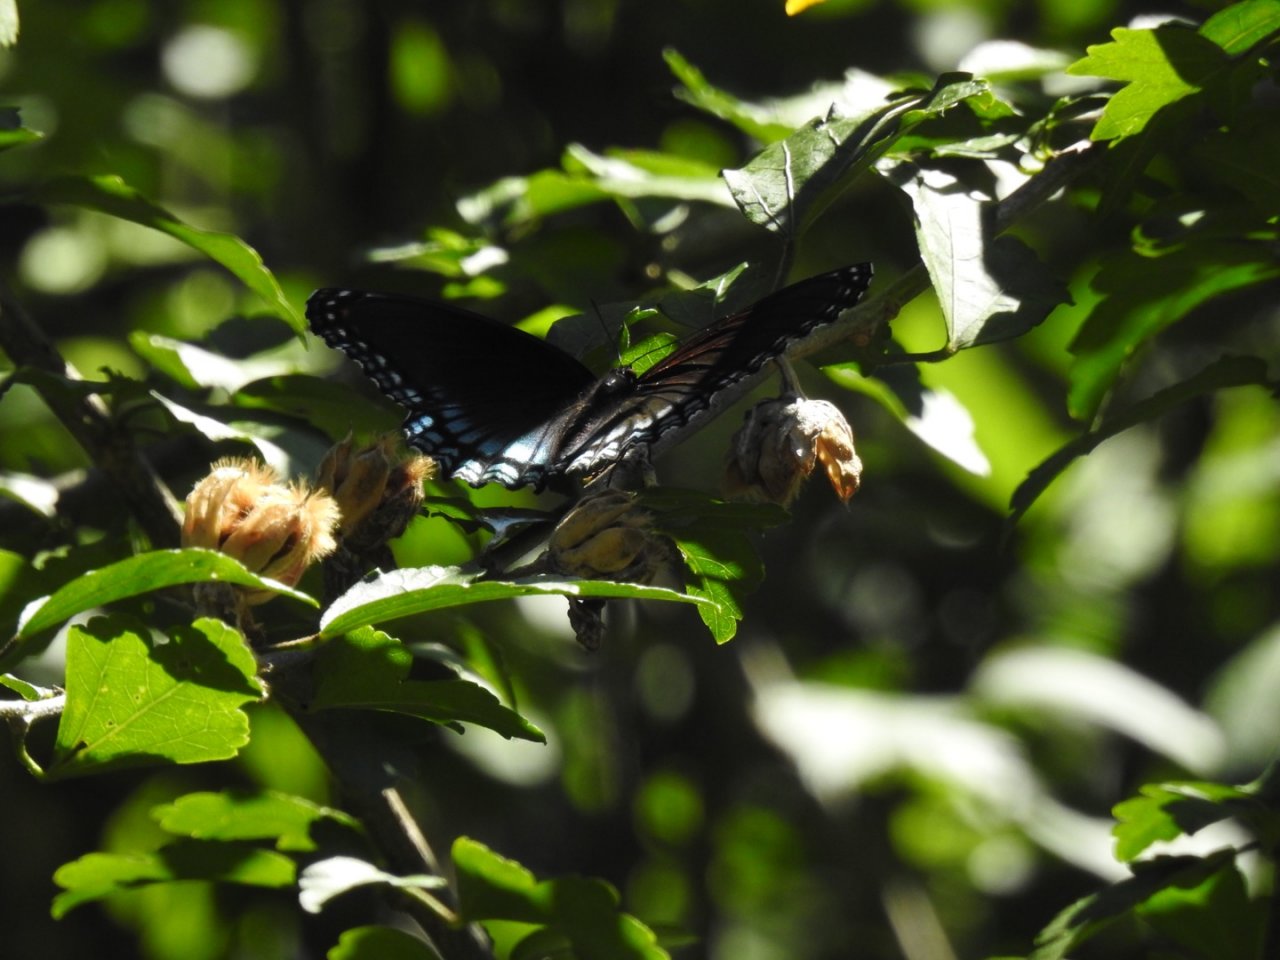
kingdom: Animalia
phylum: Arthropoda
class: Insecta
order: Lepidoptera
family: Nymphalidae
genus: Limenitis
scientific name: Limenitis arthemis
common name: Red-spotted Admiral
